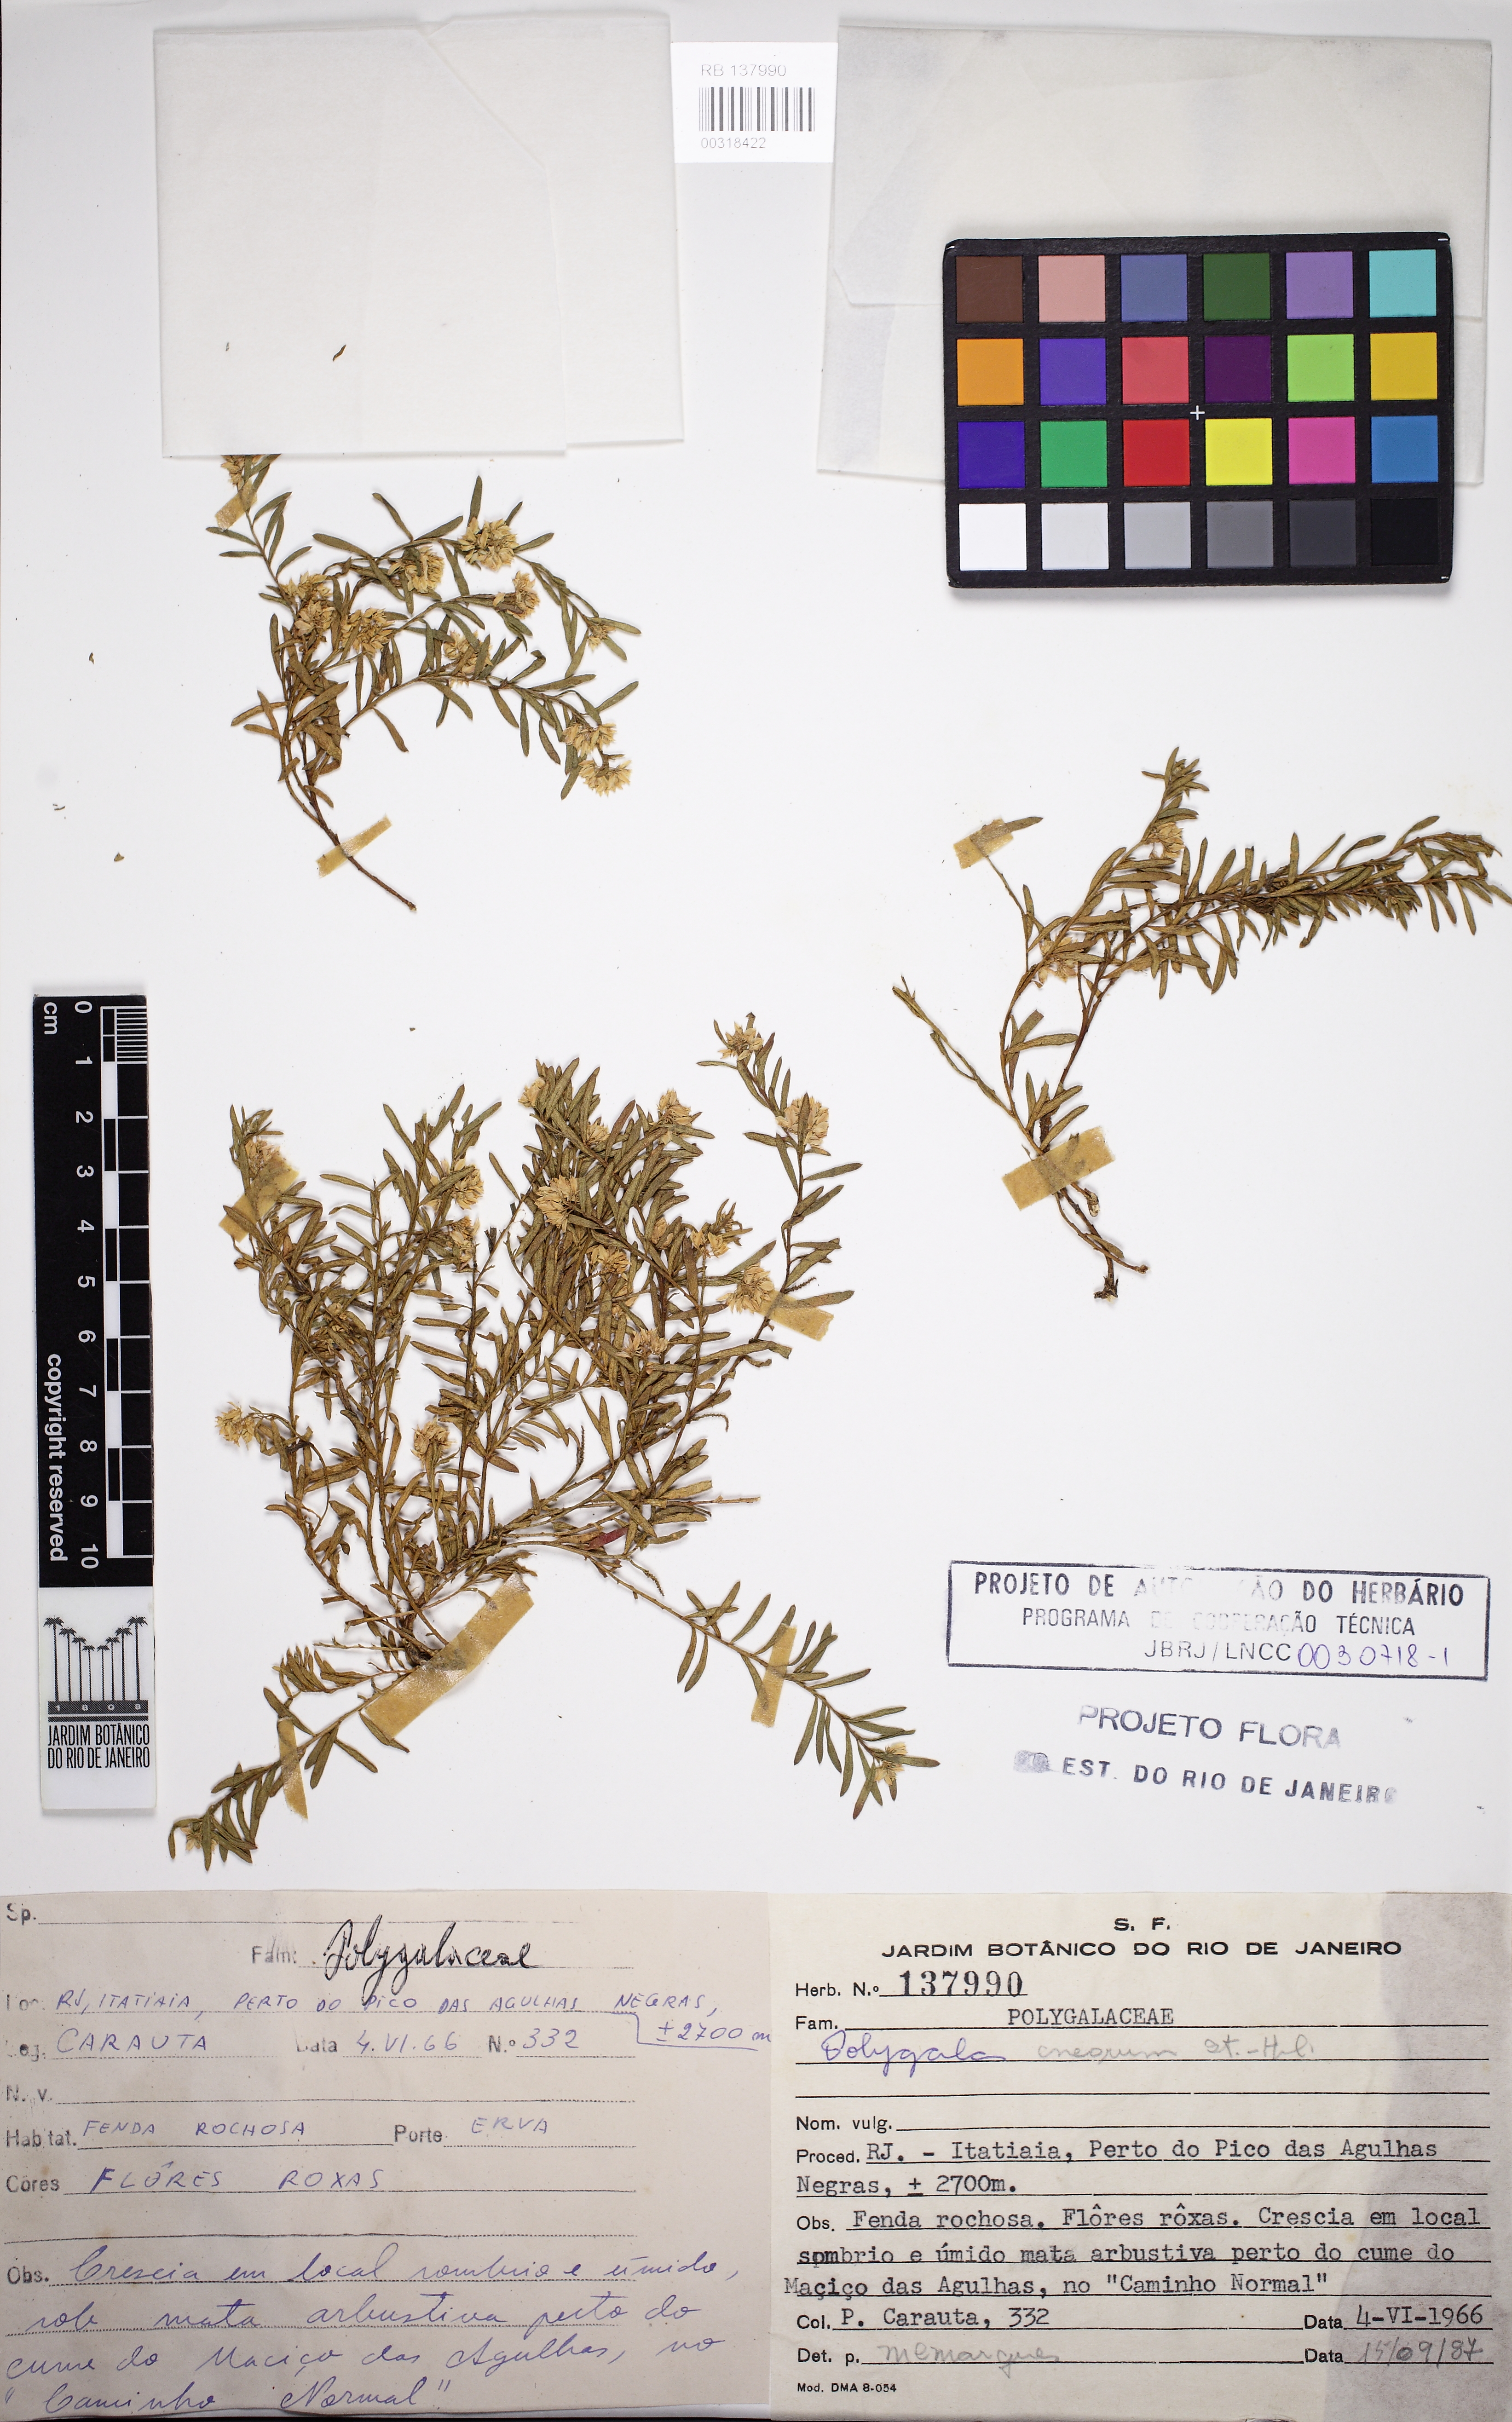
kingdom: Plantae
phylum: Tracheophyta
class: Magnoliopsida
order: Fabales
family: Polygalaceae
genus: Polygala
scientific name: Polygala cneorum
